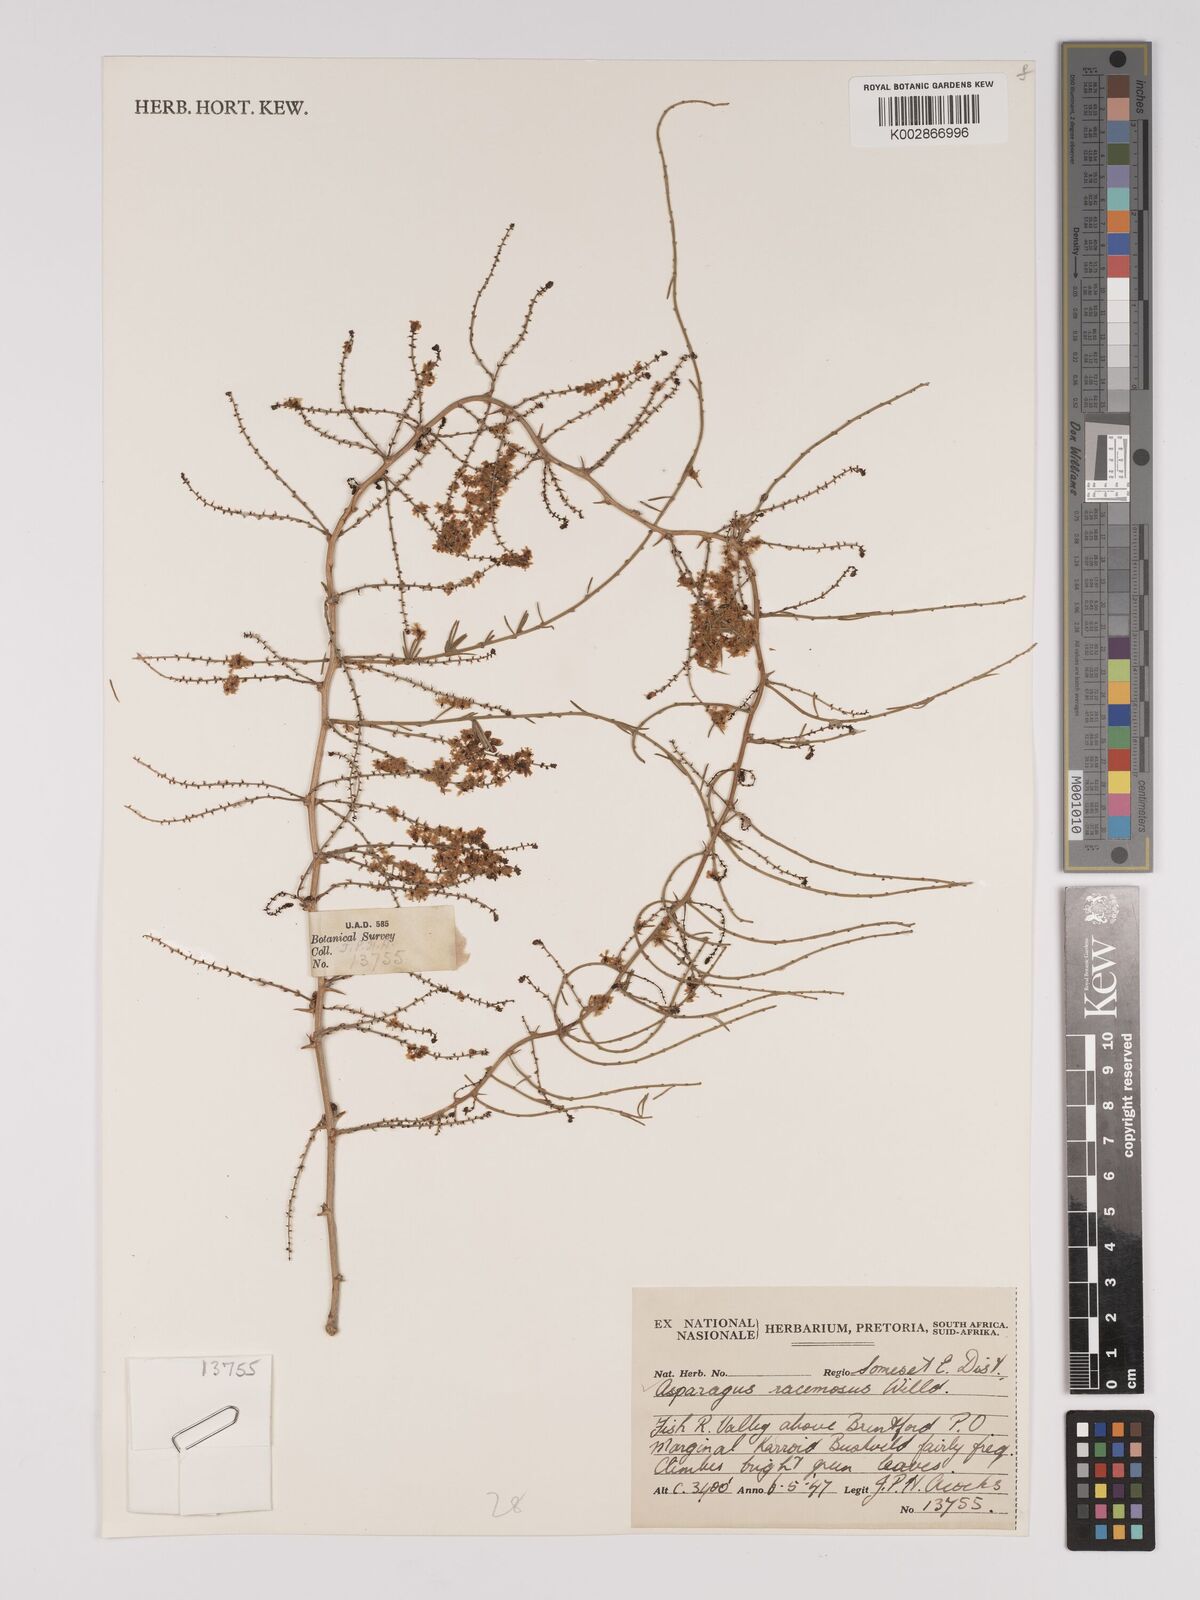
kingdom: Plantae
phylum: Tracheophyta
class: Liliopsida
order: Asparagales
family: Asparagaceae
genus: Asparagus
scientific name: Asparagus racemosus
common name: Asparagus-fern
